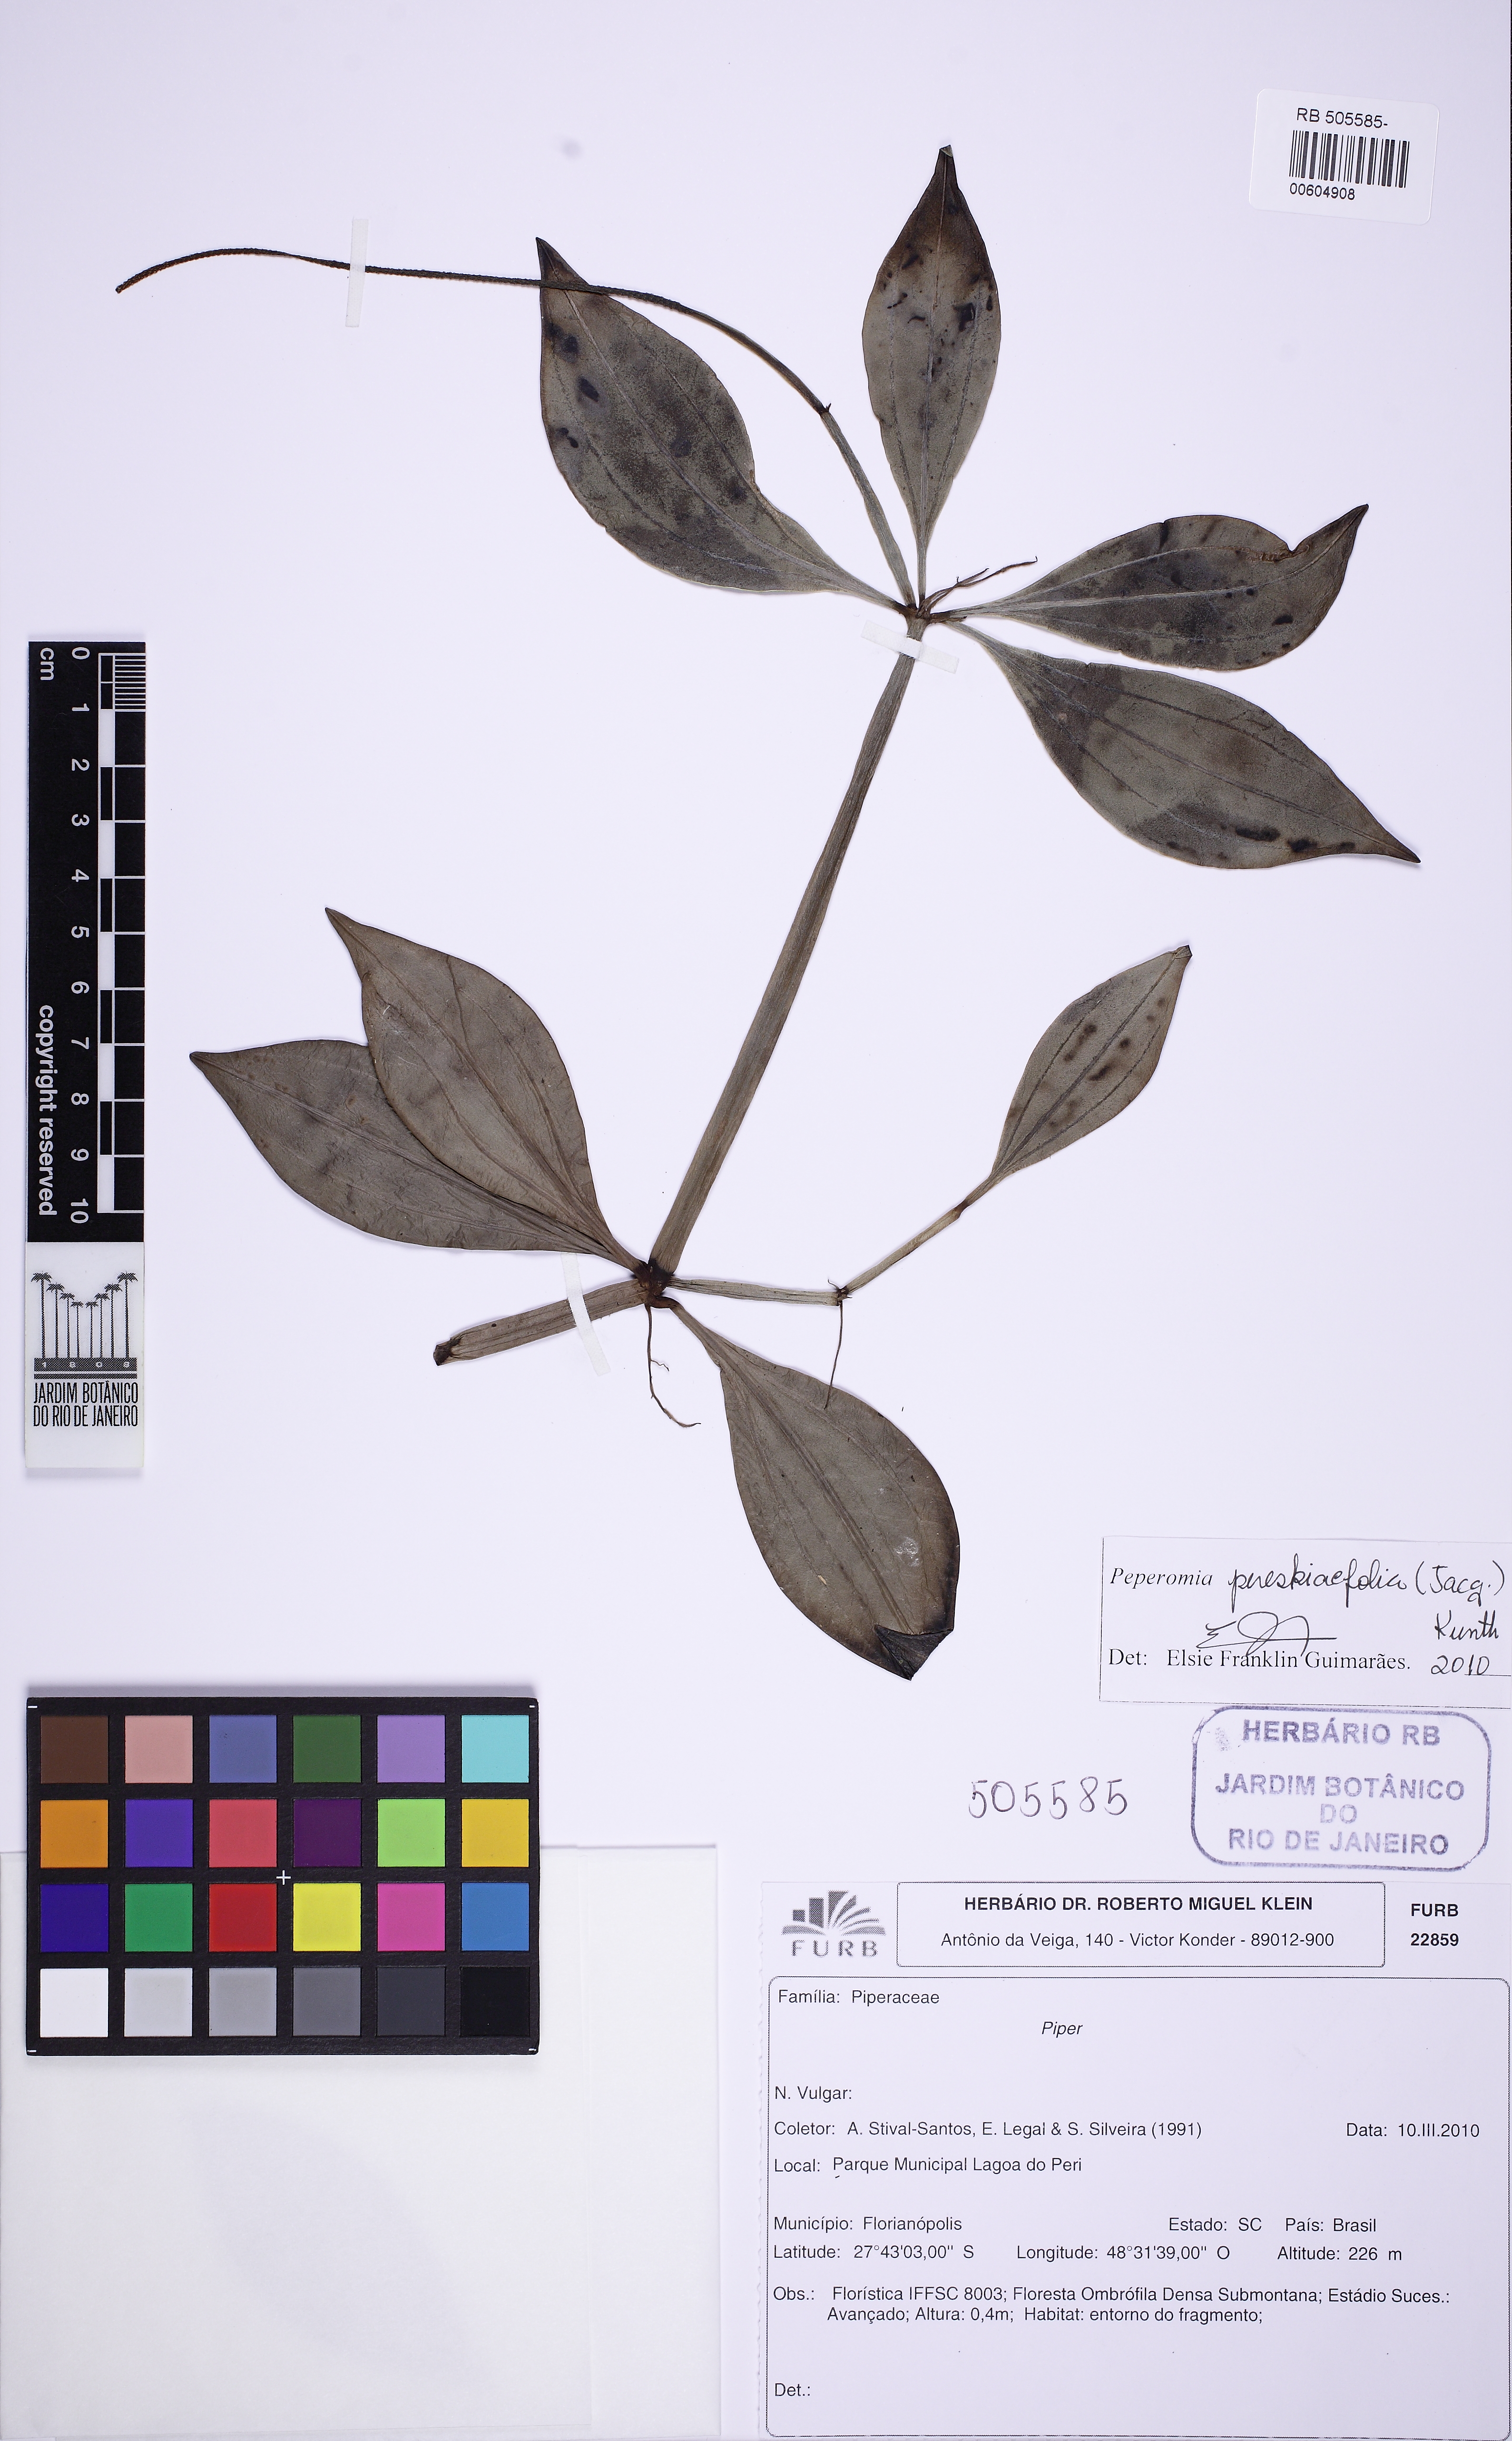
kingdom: Plantae
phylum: Tracheophyta
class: Magnoliopsida
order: Piperales
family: Piperaceae
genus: Peperomia
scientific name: Peperomia rubricaulis
